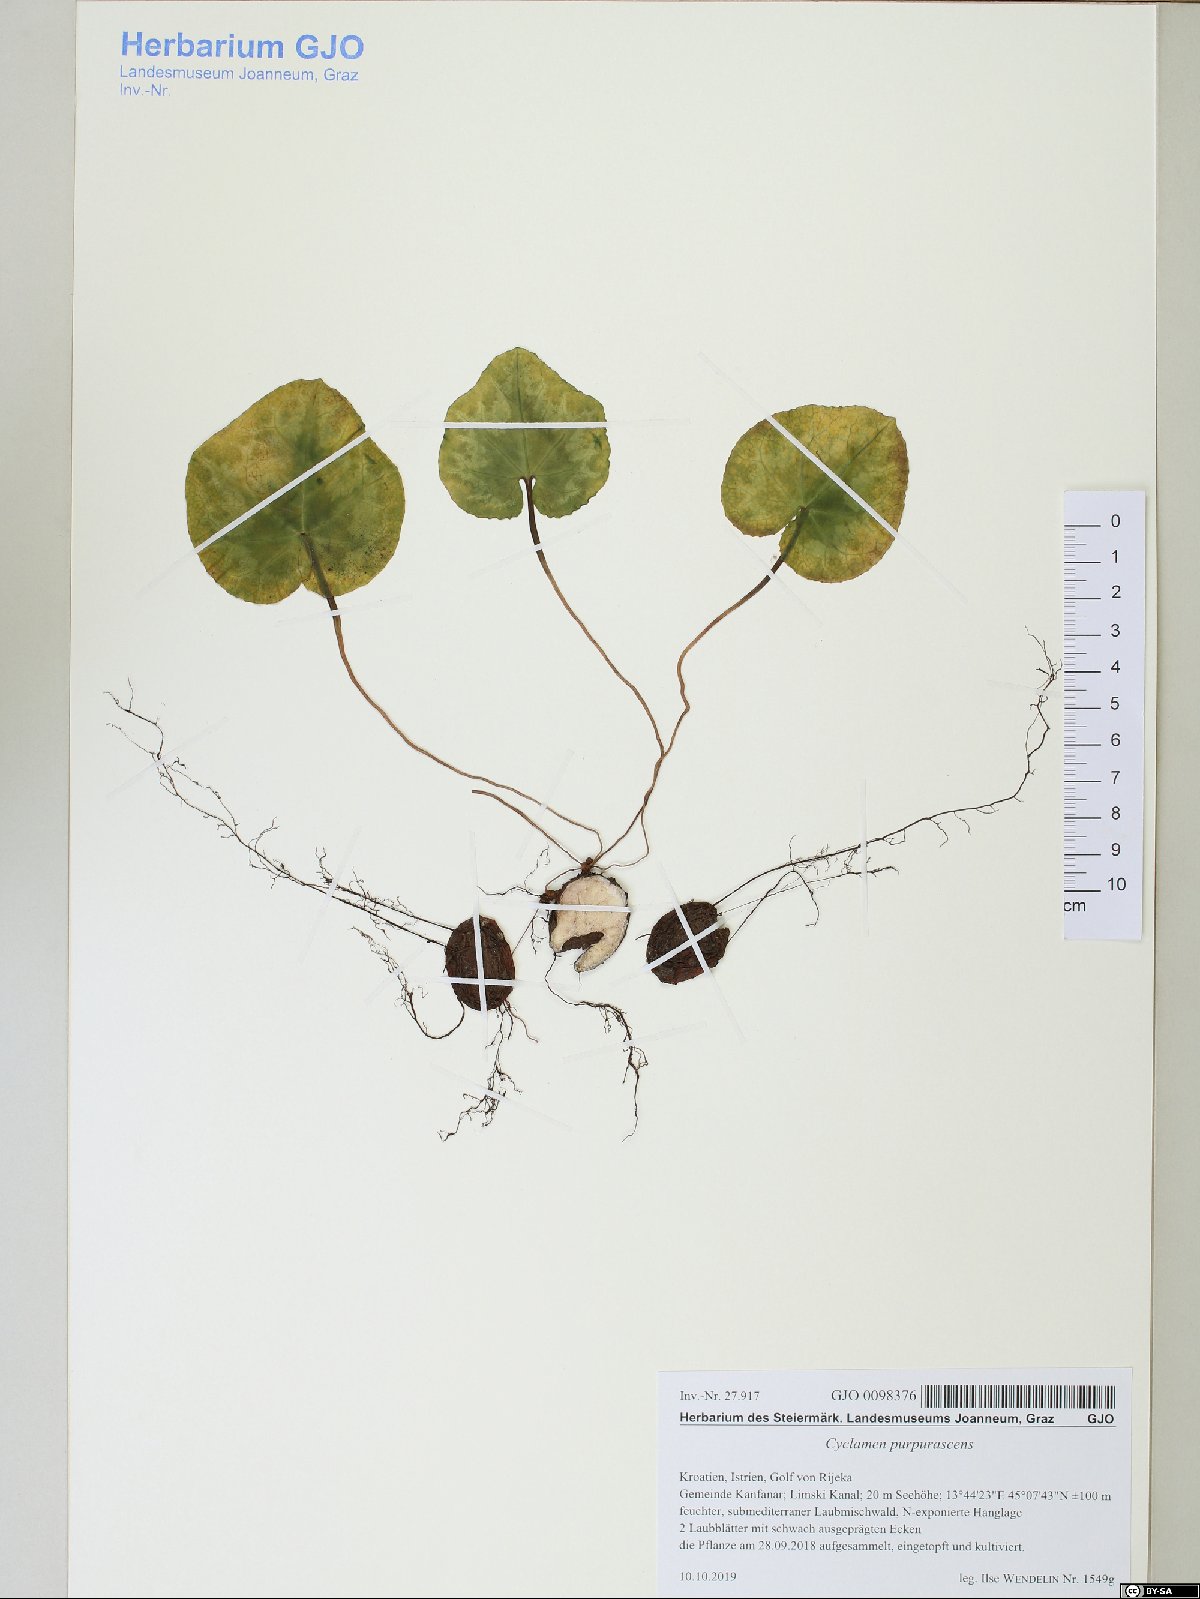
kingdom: Plantae
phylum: Tracheophyta
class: Magnoliopsida
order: Ericales
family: Primulaceae
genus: Cyclamen
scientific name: Cyclamen purpurascens
